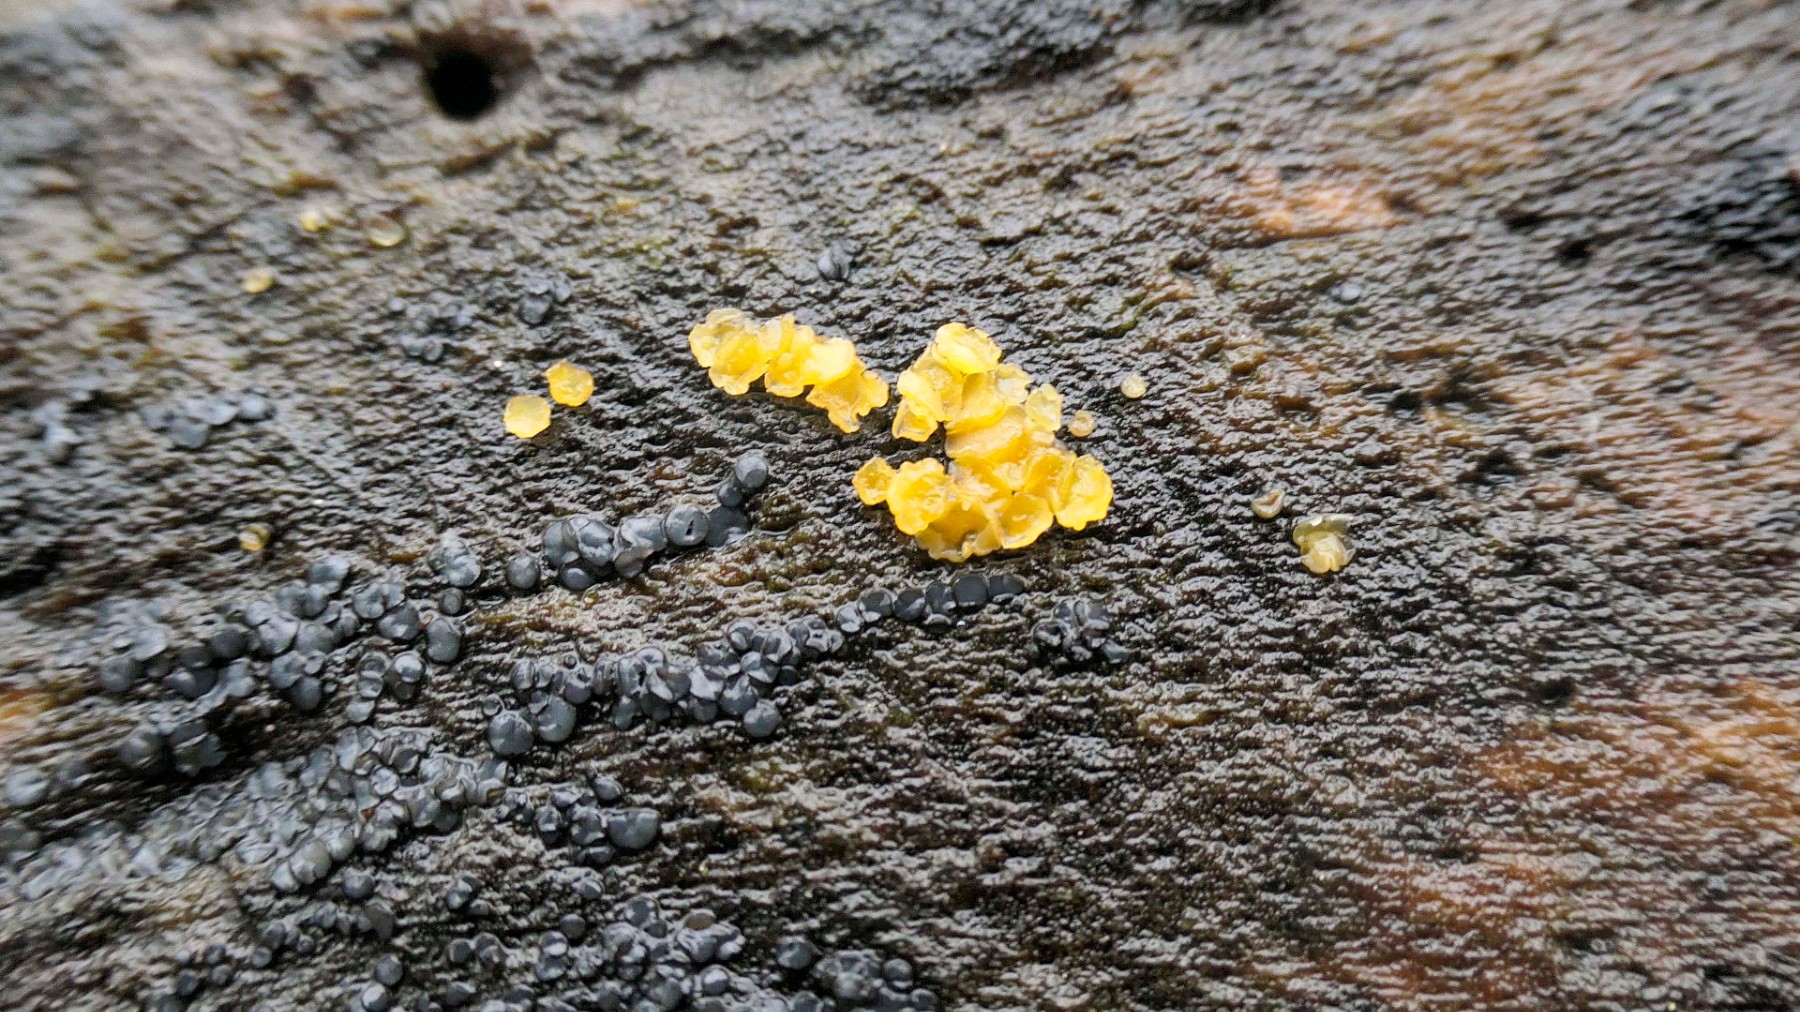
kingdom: Fungi
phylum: Ascomycota
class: Leotiomycetes
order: Helotiales
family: Helotiaceae
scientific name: Helotiaceae
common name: stilkskivefamilien
